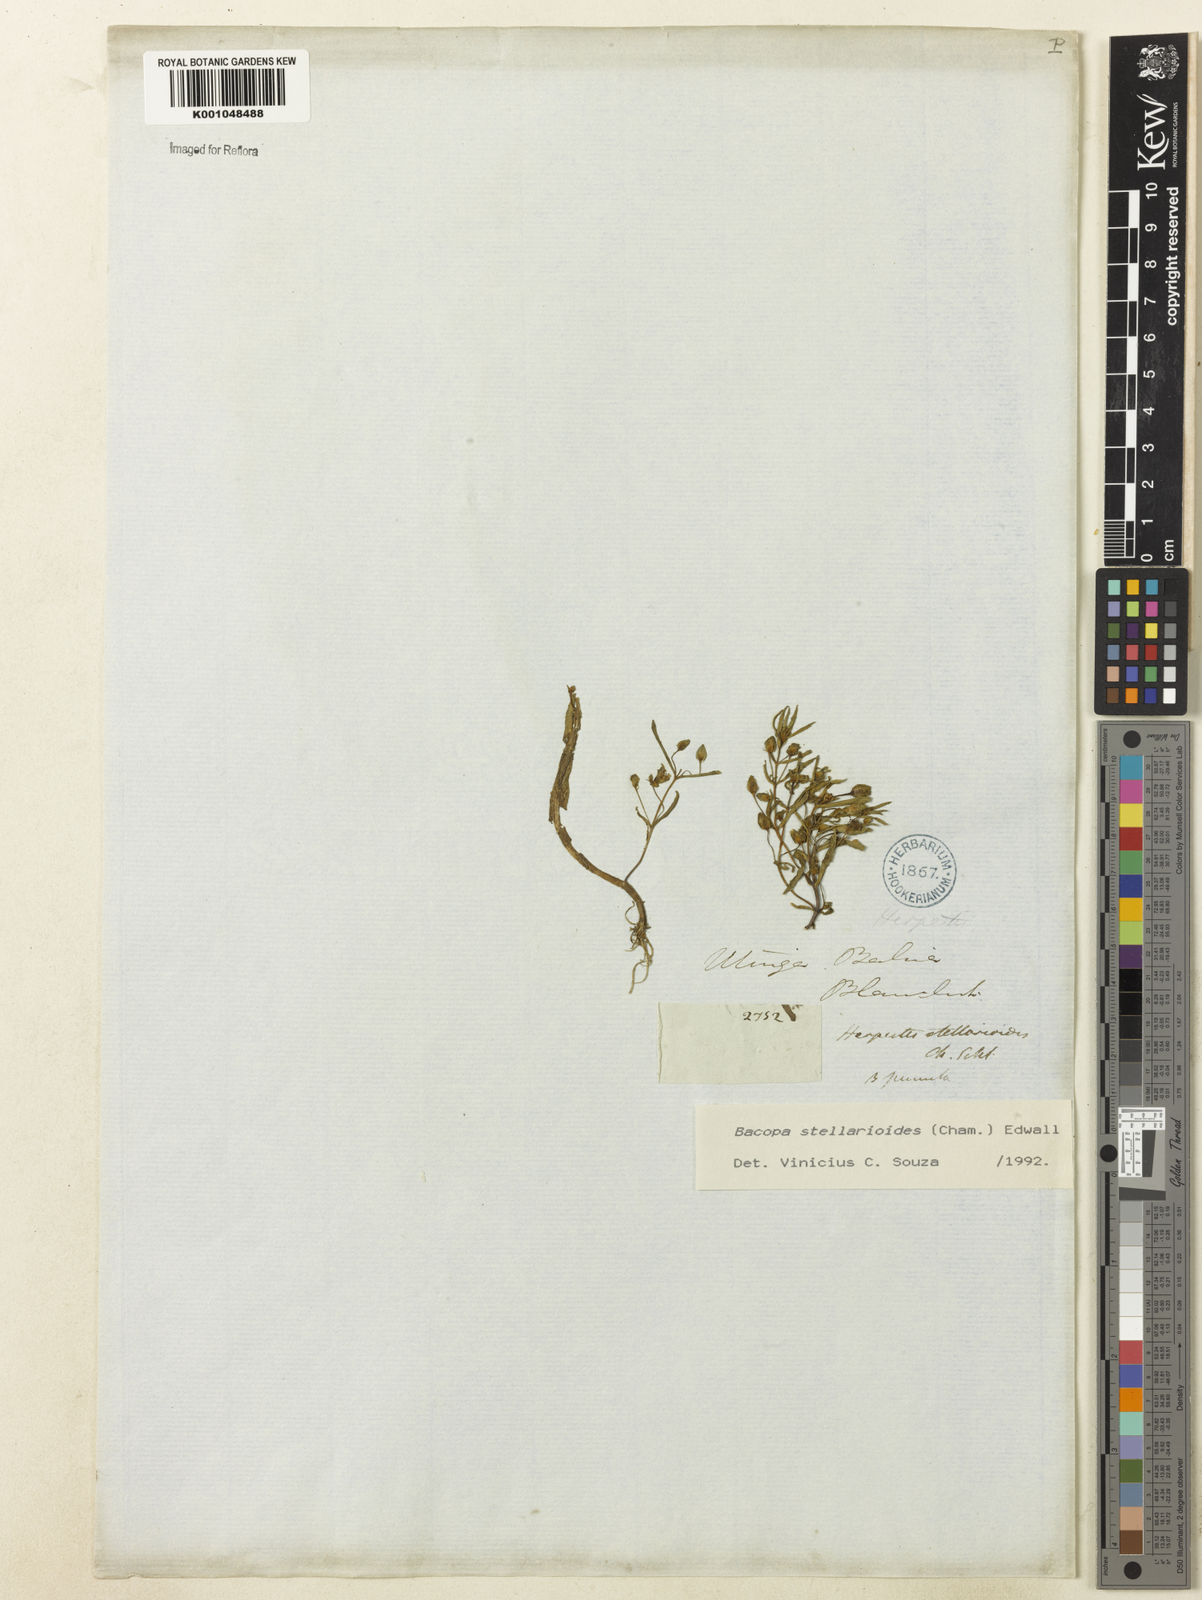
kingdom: Plantae
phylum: Tracheophyta
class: Magnoliopsida
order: Lamiales
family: Plantaginaceae
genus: Bacopa
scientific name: Bacopa aquatica
